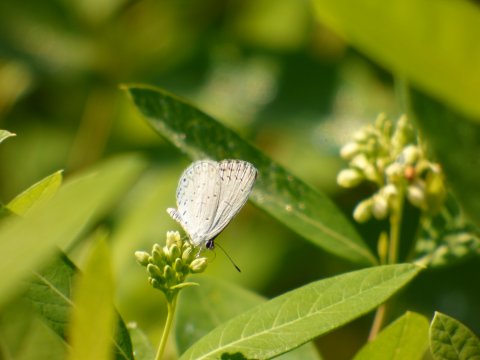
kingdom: Animalia
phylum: Arthropoda
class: Insecta
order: Lepidoptera
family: Lycaenidae
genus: Cyaniris
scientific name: Cyaniris neglecta
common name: Summer Azure
